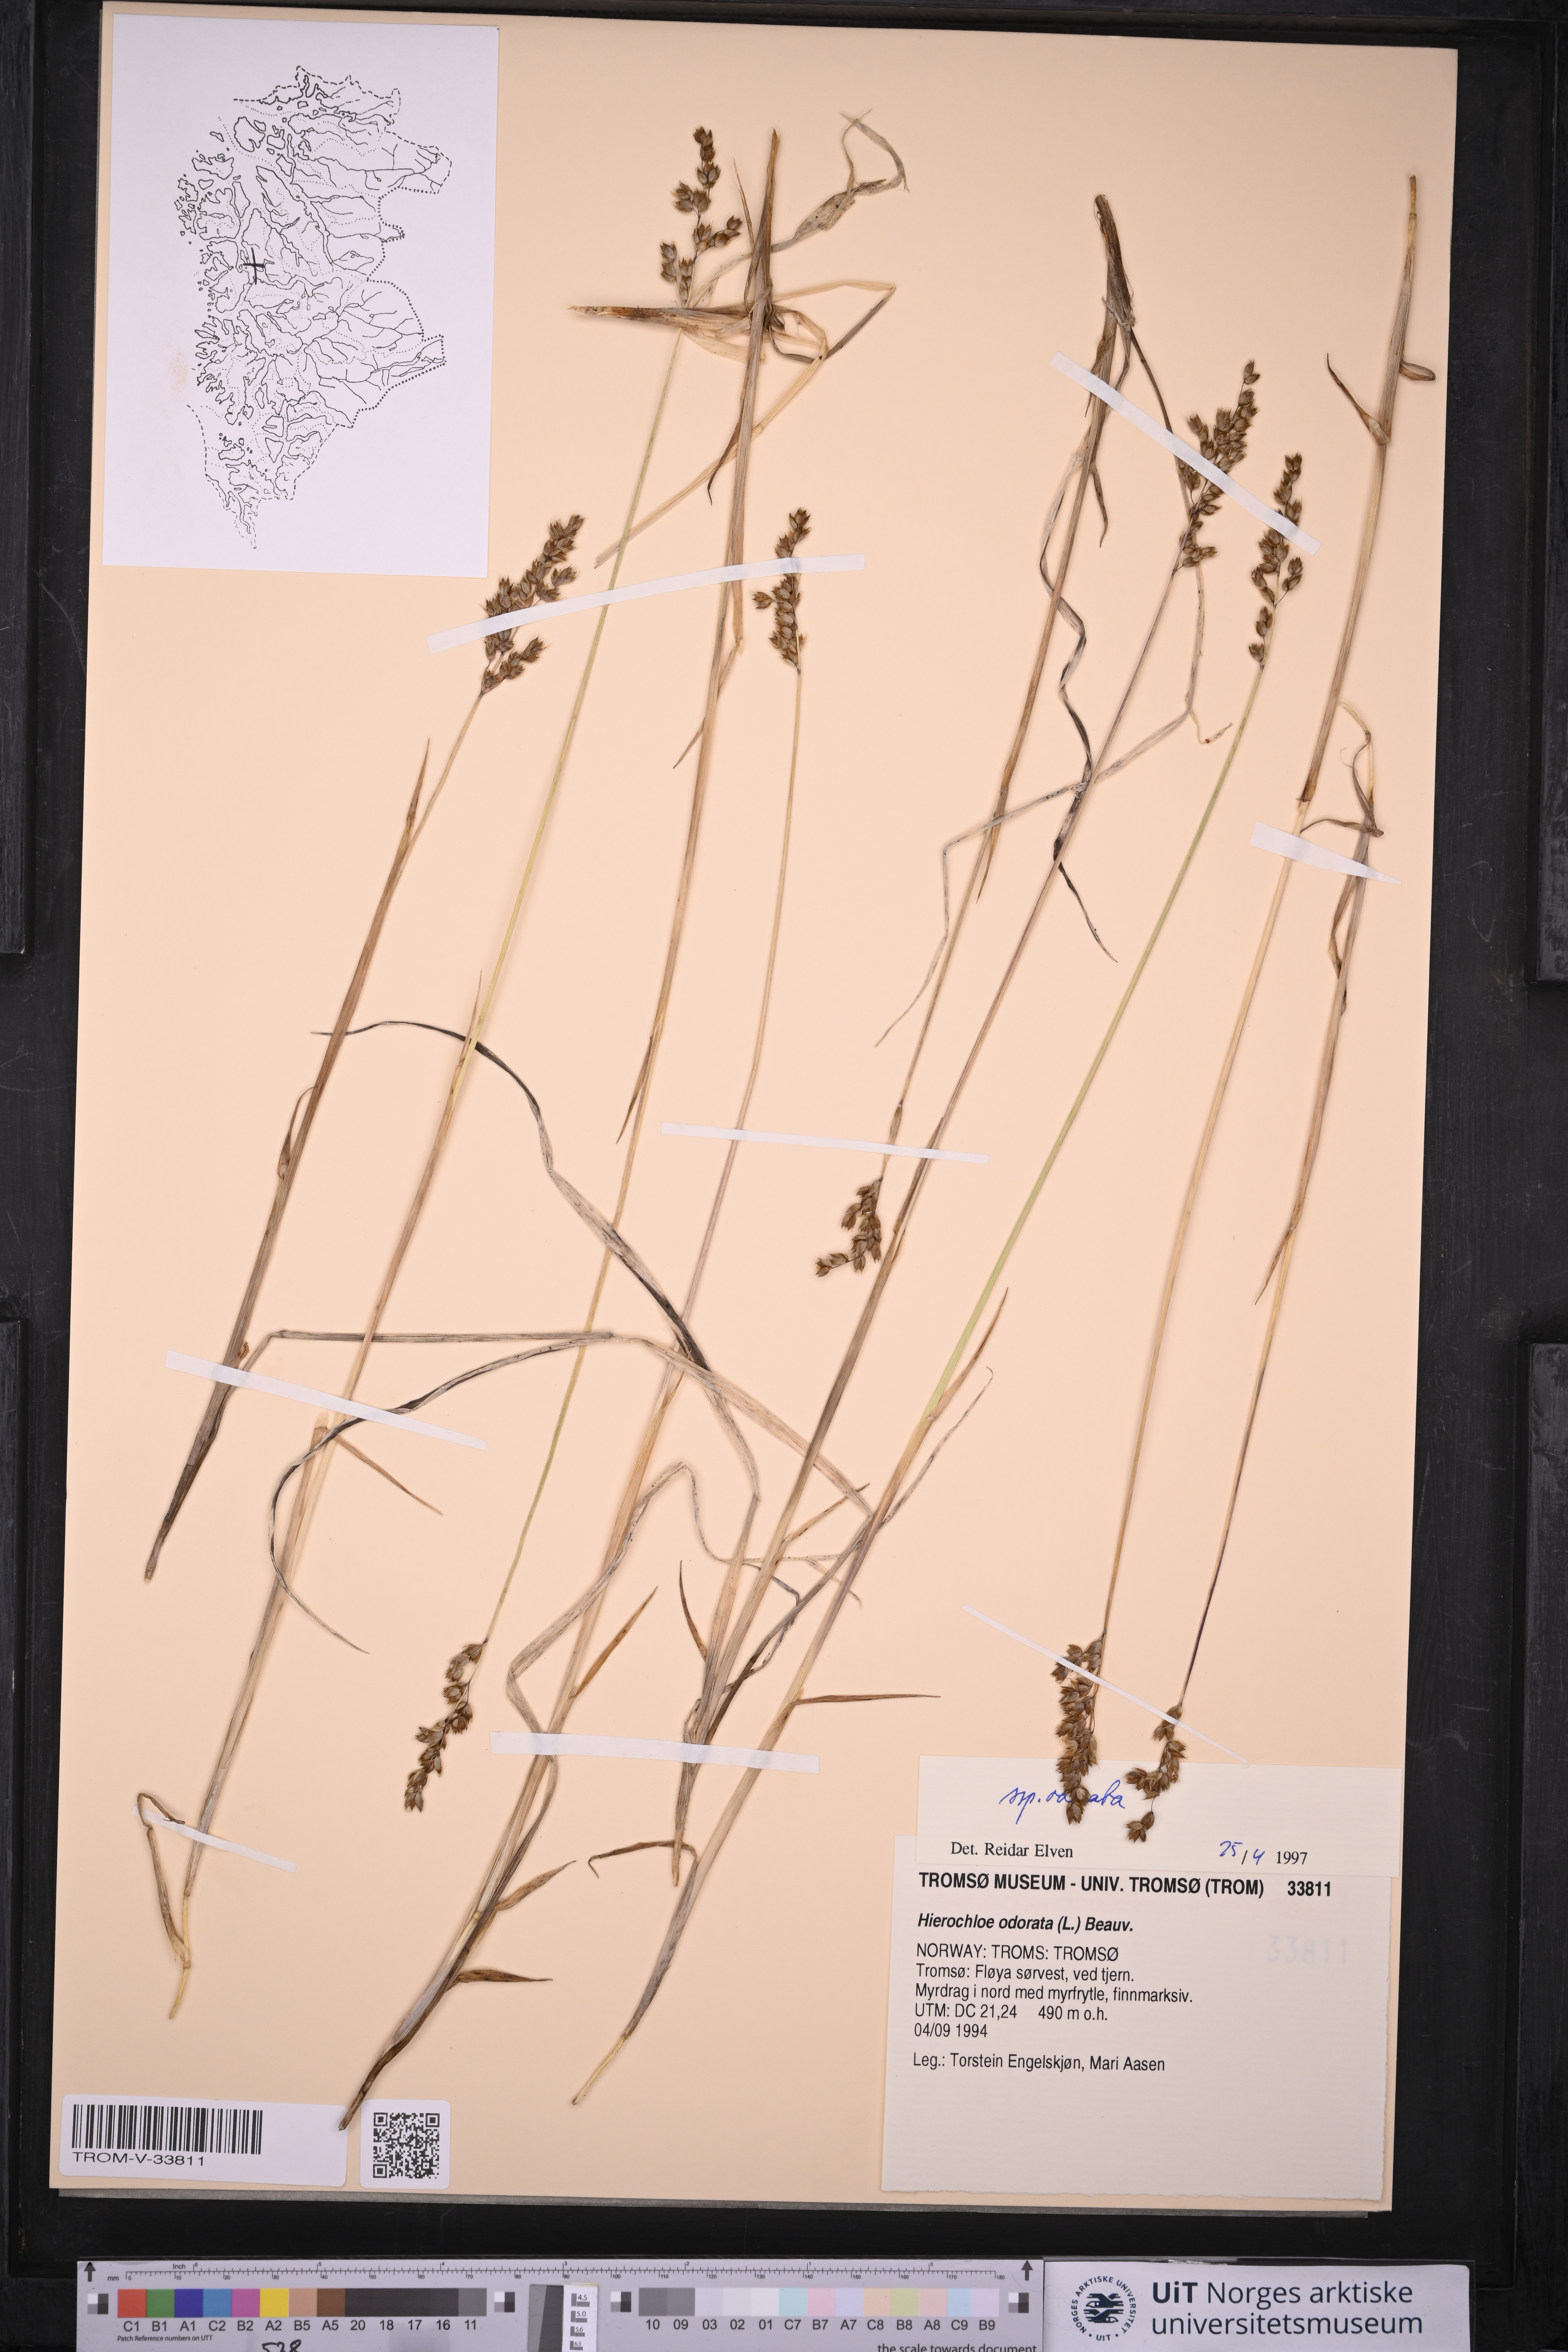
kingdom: Plantae
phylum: Tracheophyta
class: Liliopsida
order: Poales
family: Poaceae
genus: Anthoxanthum
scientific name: Anthoxanthum nitens
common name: Holy grass
